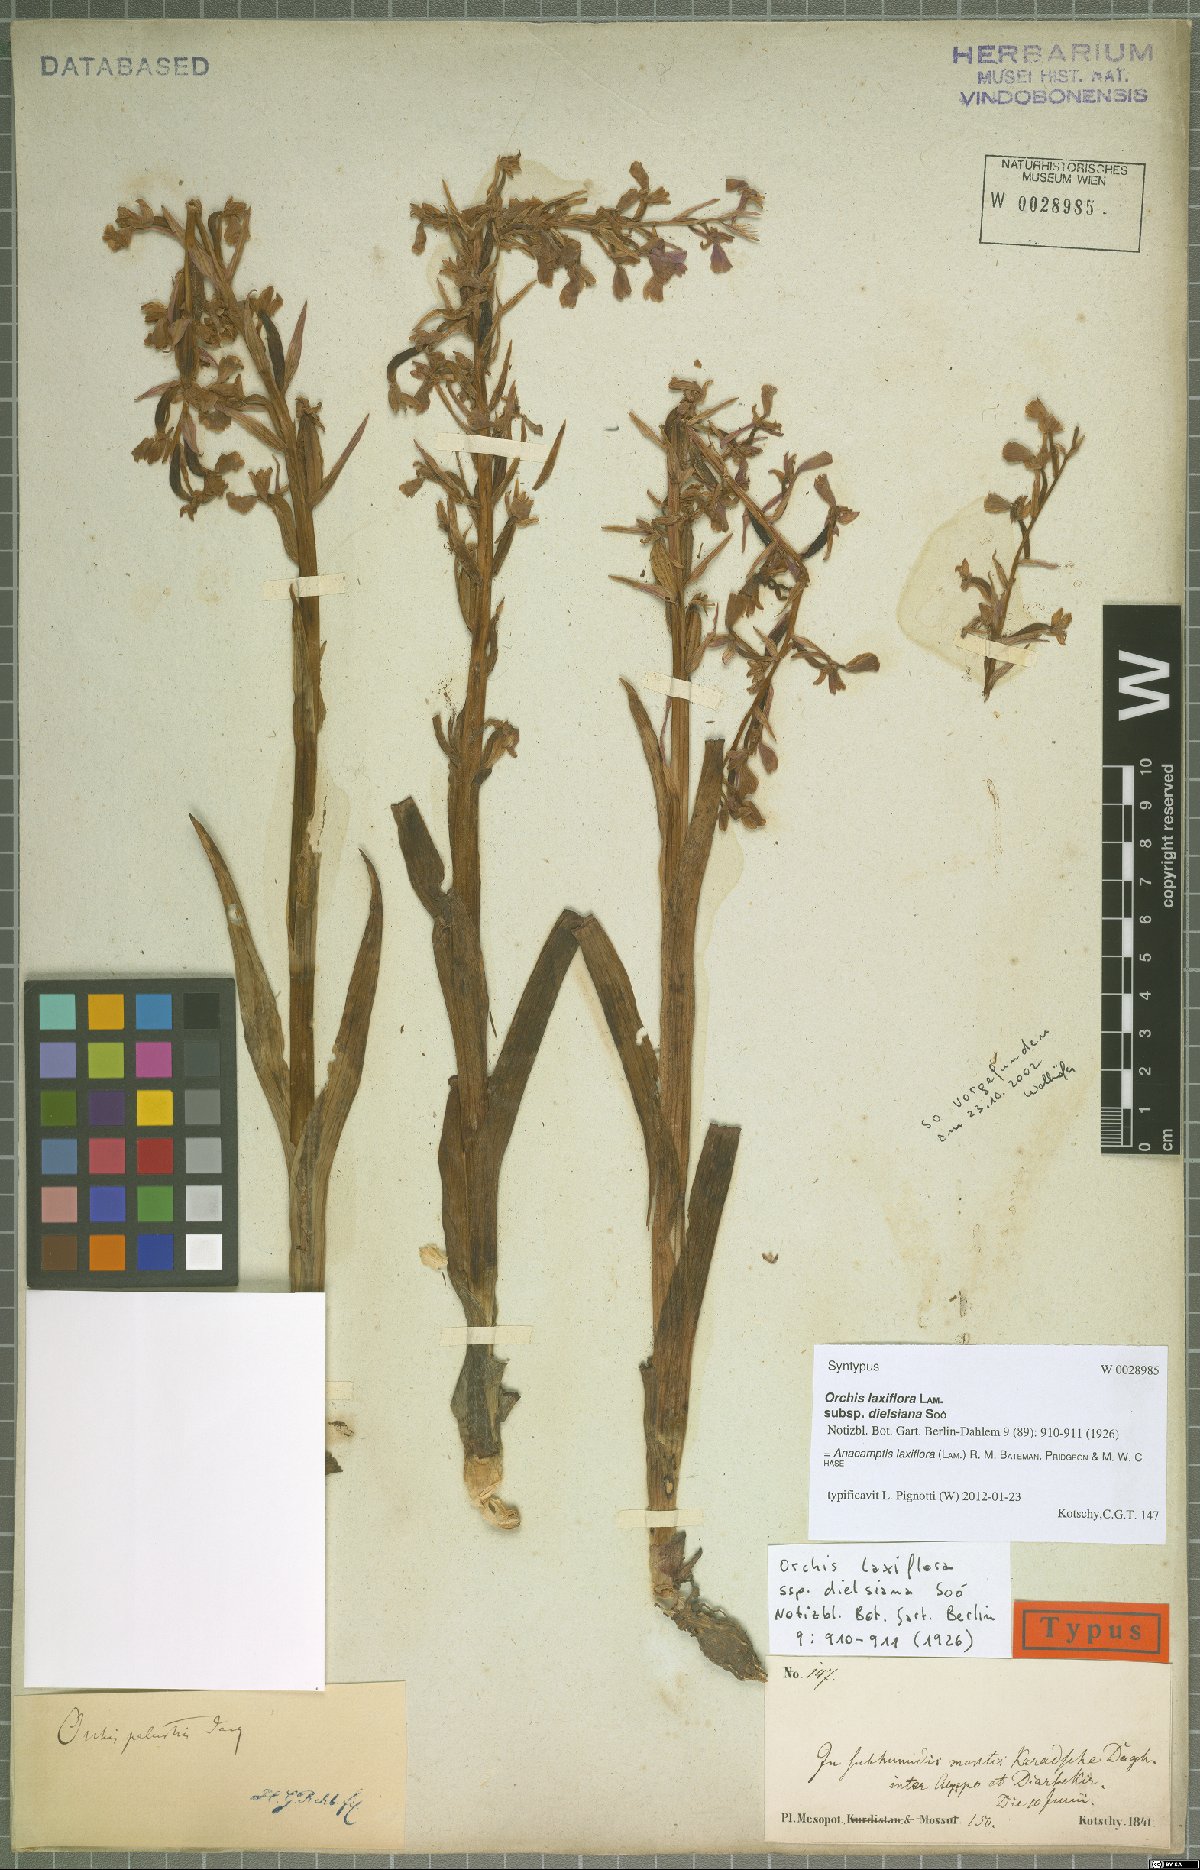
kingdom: Plantae
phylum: Tracheophyta
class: Liliopsida
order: Asparagales
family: Orchidaceae
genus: Anacamptis
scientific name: Anacamptis laxiflora
